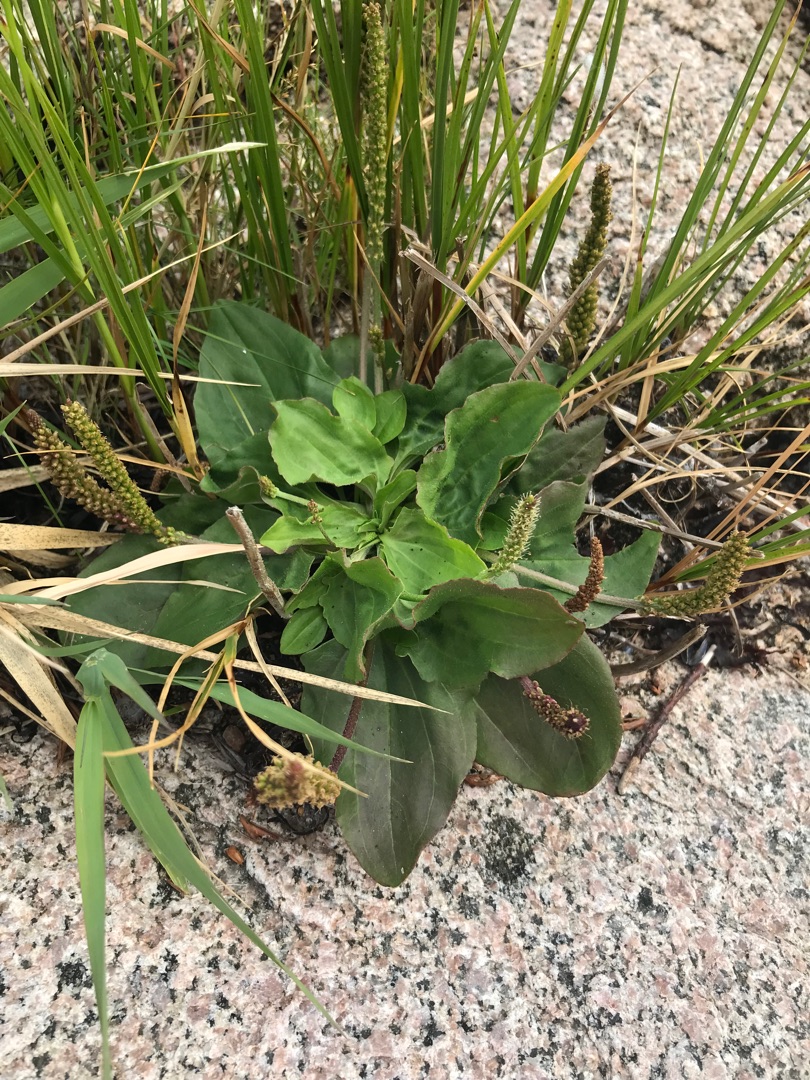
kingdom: Plantae
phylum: Tracheophyta
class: Magnoliopsida
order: Lamiales
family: Plantaginaceae
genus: Plantago
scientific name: Plantago major
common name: Glat vejbred
